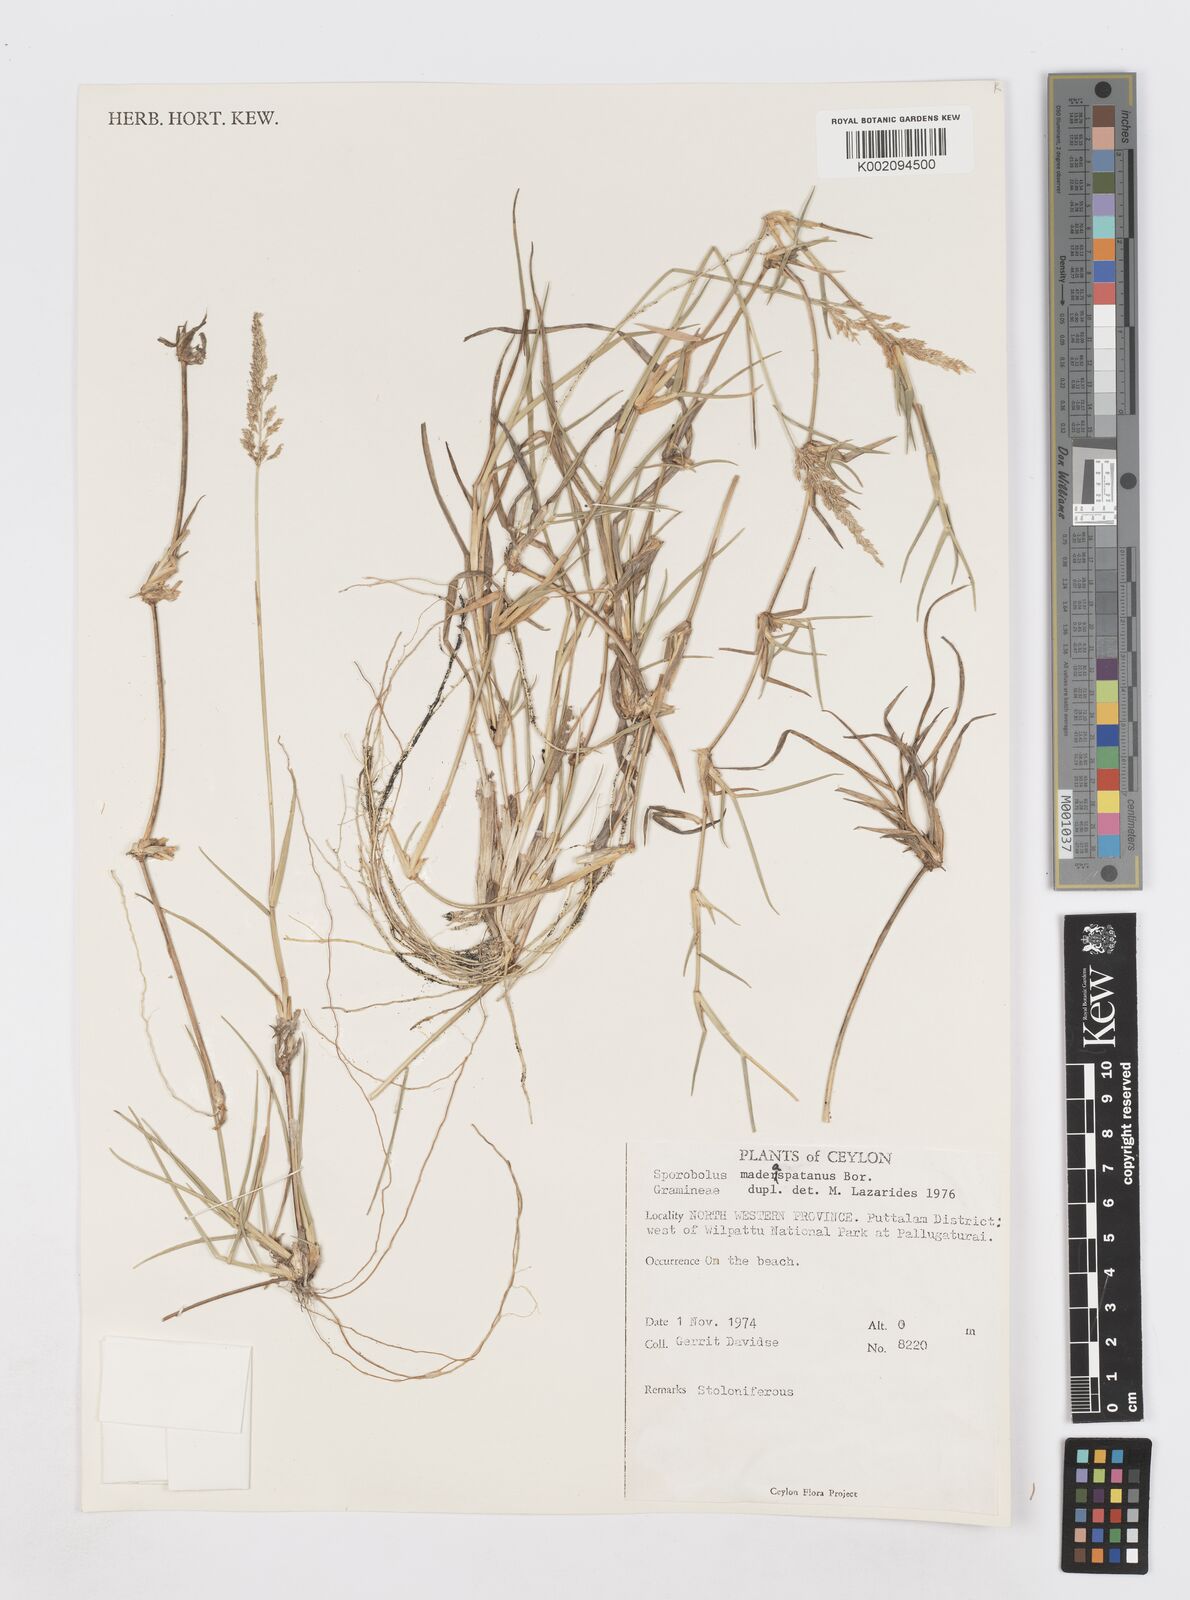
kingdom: Plantae
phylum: Tracheophyta
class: Liliopsida
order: Poales
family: Poaceae
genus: Sporobolus
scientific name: Sporobolus maderaspatanus
